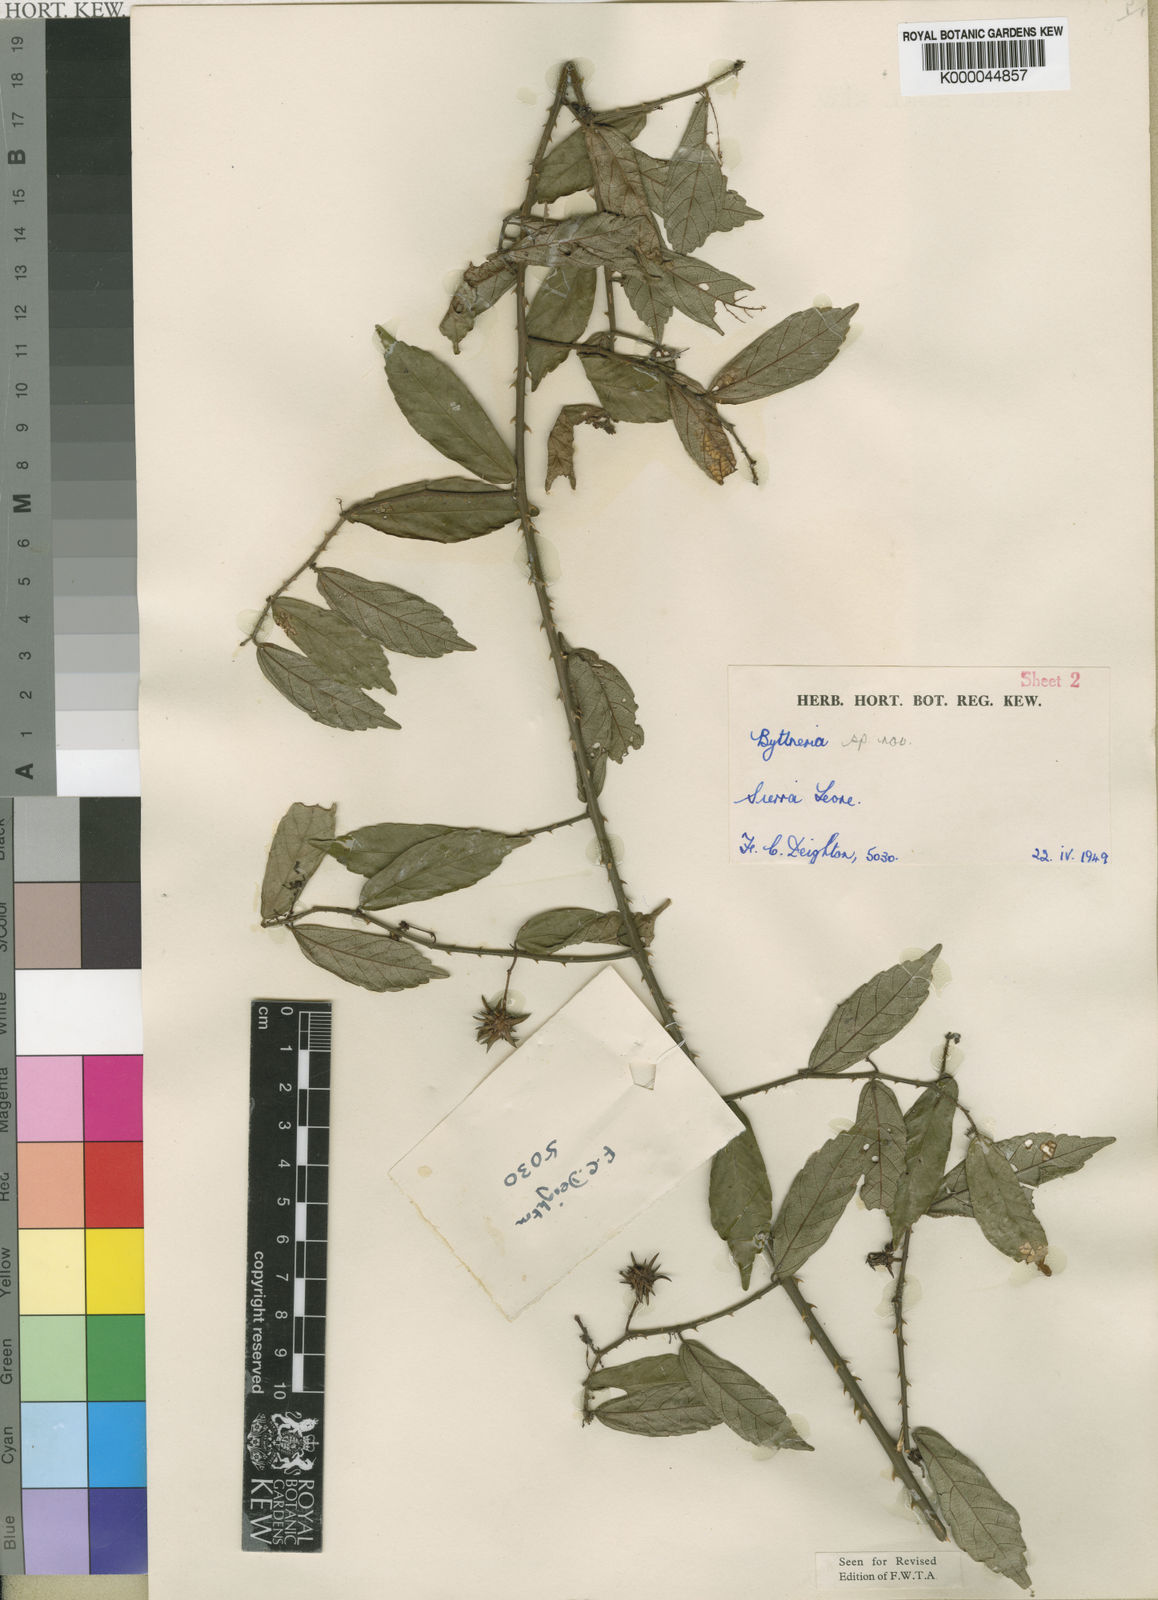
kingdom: Plantae
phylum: Tracheophyta
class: Magnoliopsida
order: Malvales
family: Malvaceae
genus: Byttneria
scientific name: Byttneria guineensis
